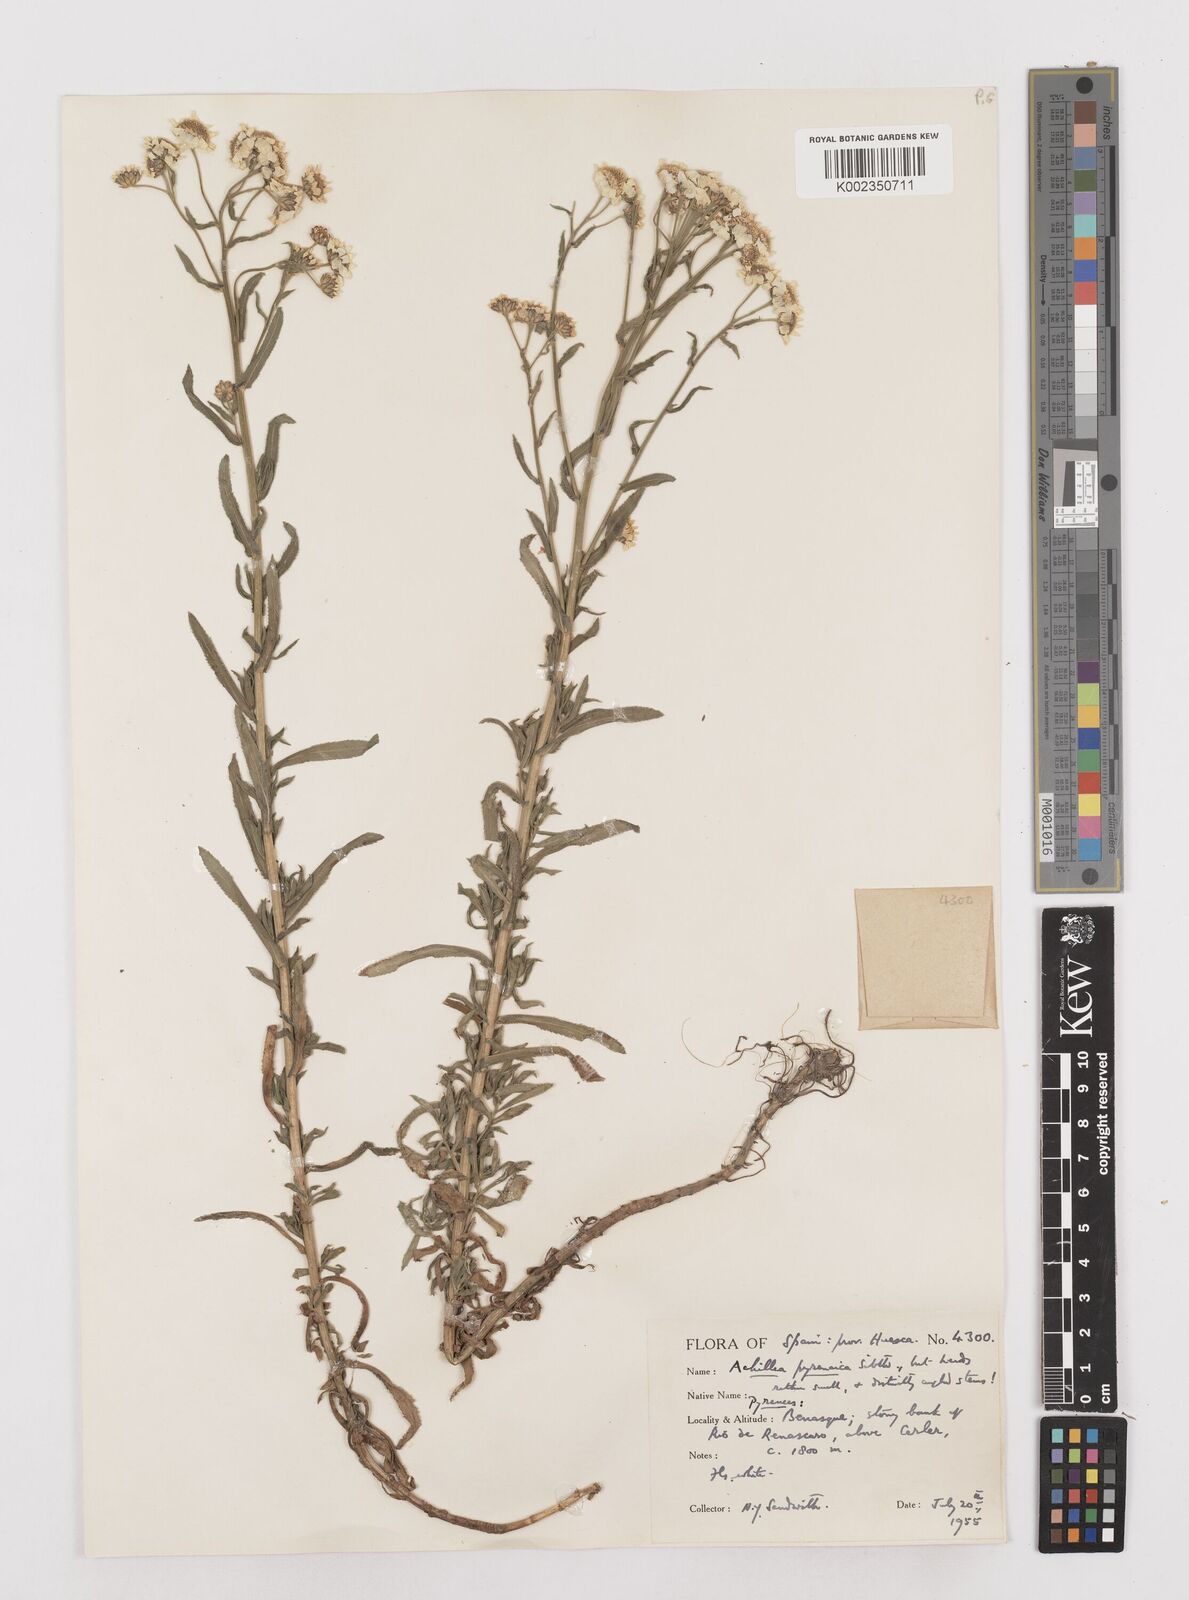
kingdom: Plantae
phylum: Tracheophyta
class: Magnoliopsida
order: Asterales
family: Asteraceae
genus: Achillea
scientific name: Achillea pyrenaica
